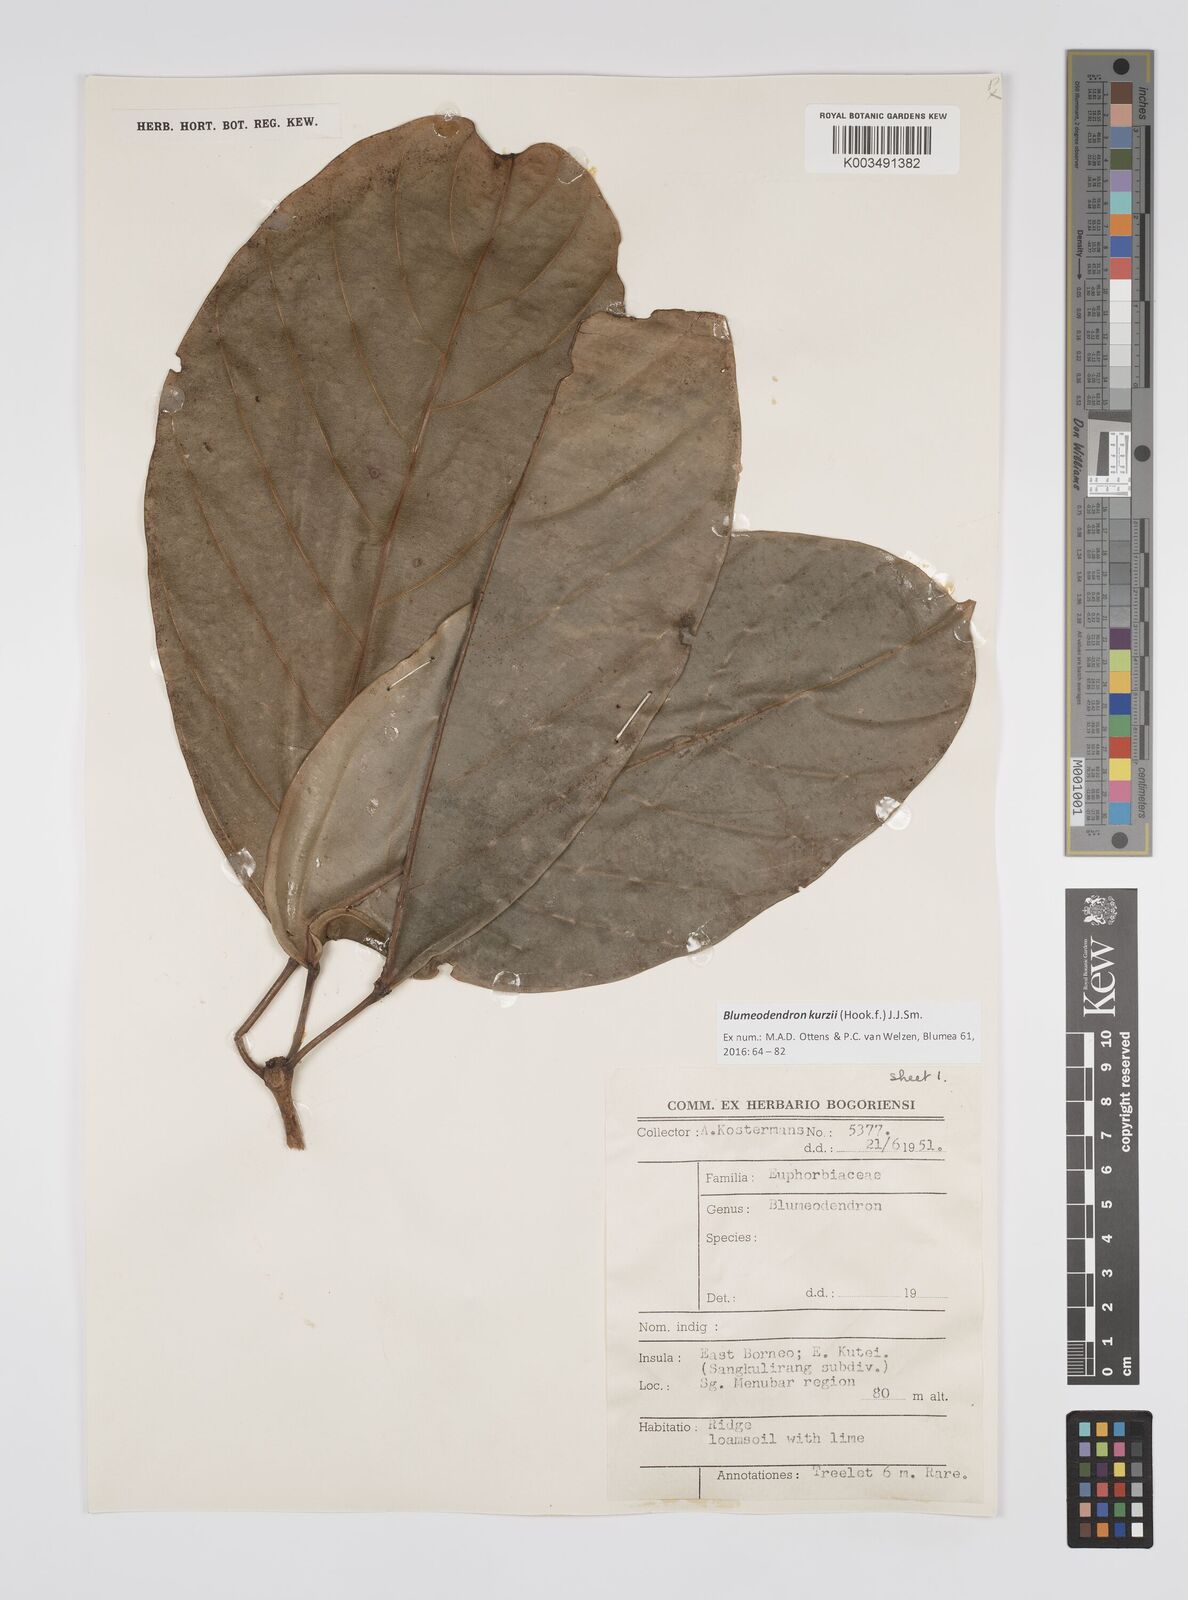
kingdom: Plantae
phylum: Tracheophyta
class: Magnoliopsida
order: Malpighiales
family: Euphorbiaceae
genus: Blumeodendron
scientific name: Blumeodendron kurzii
